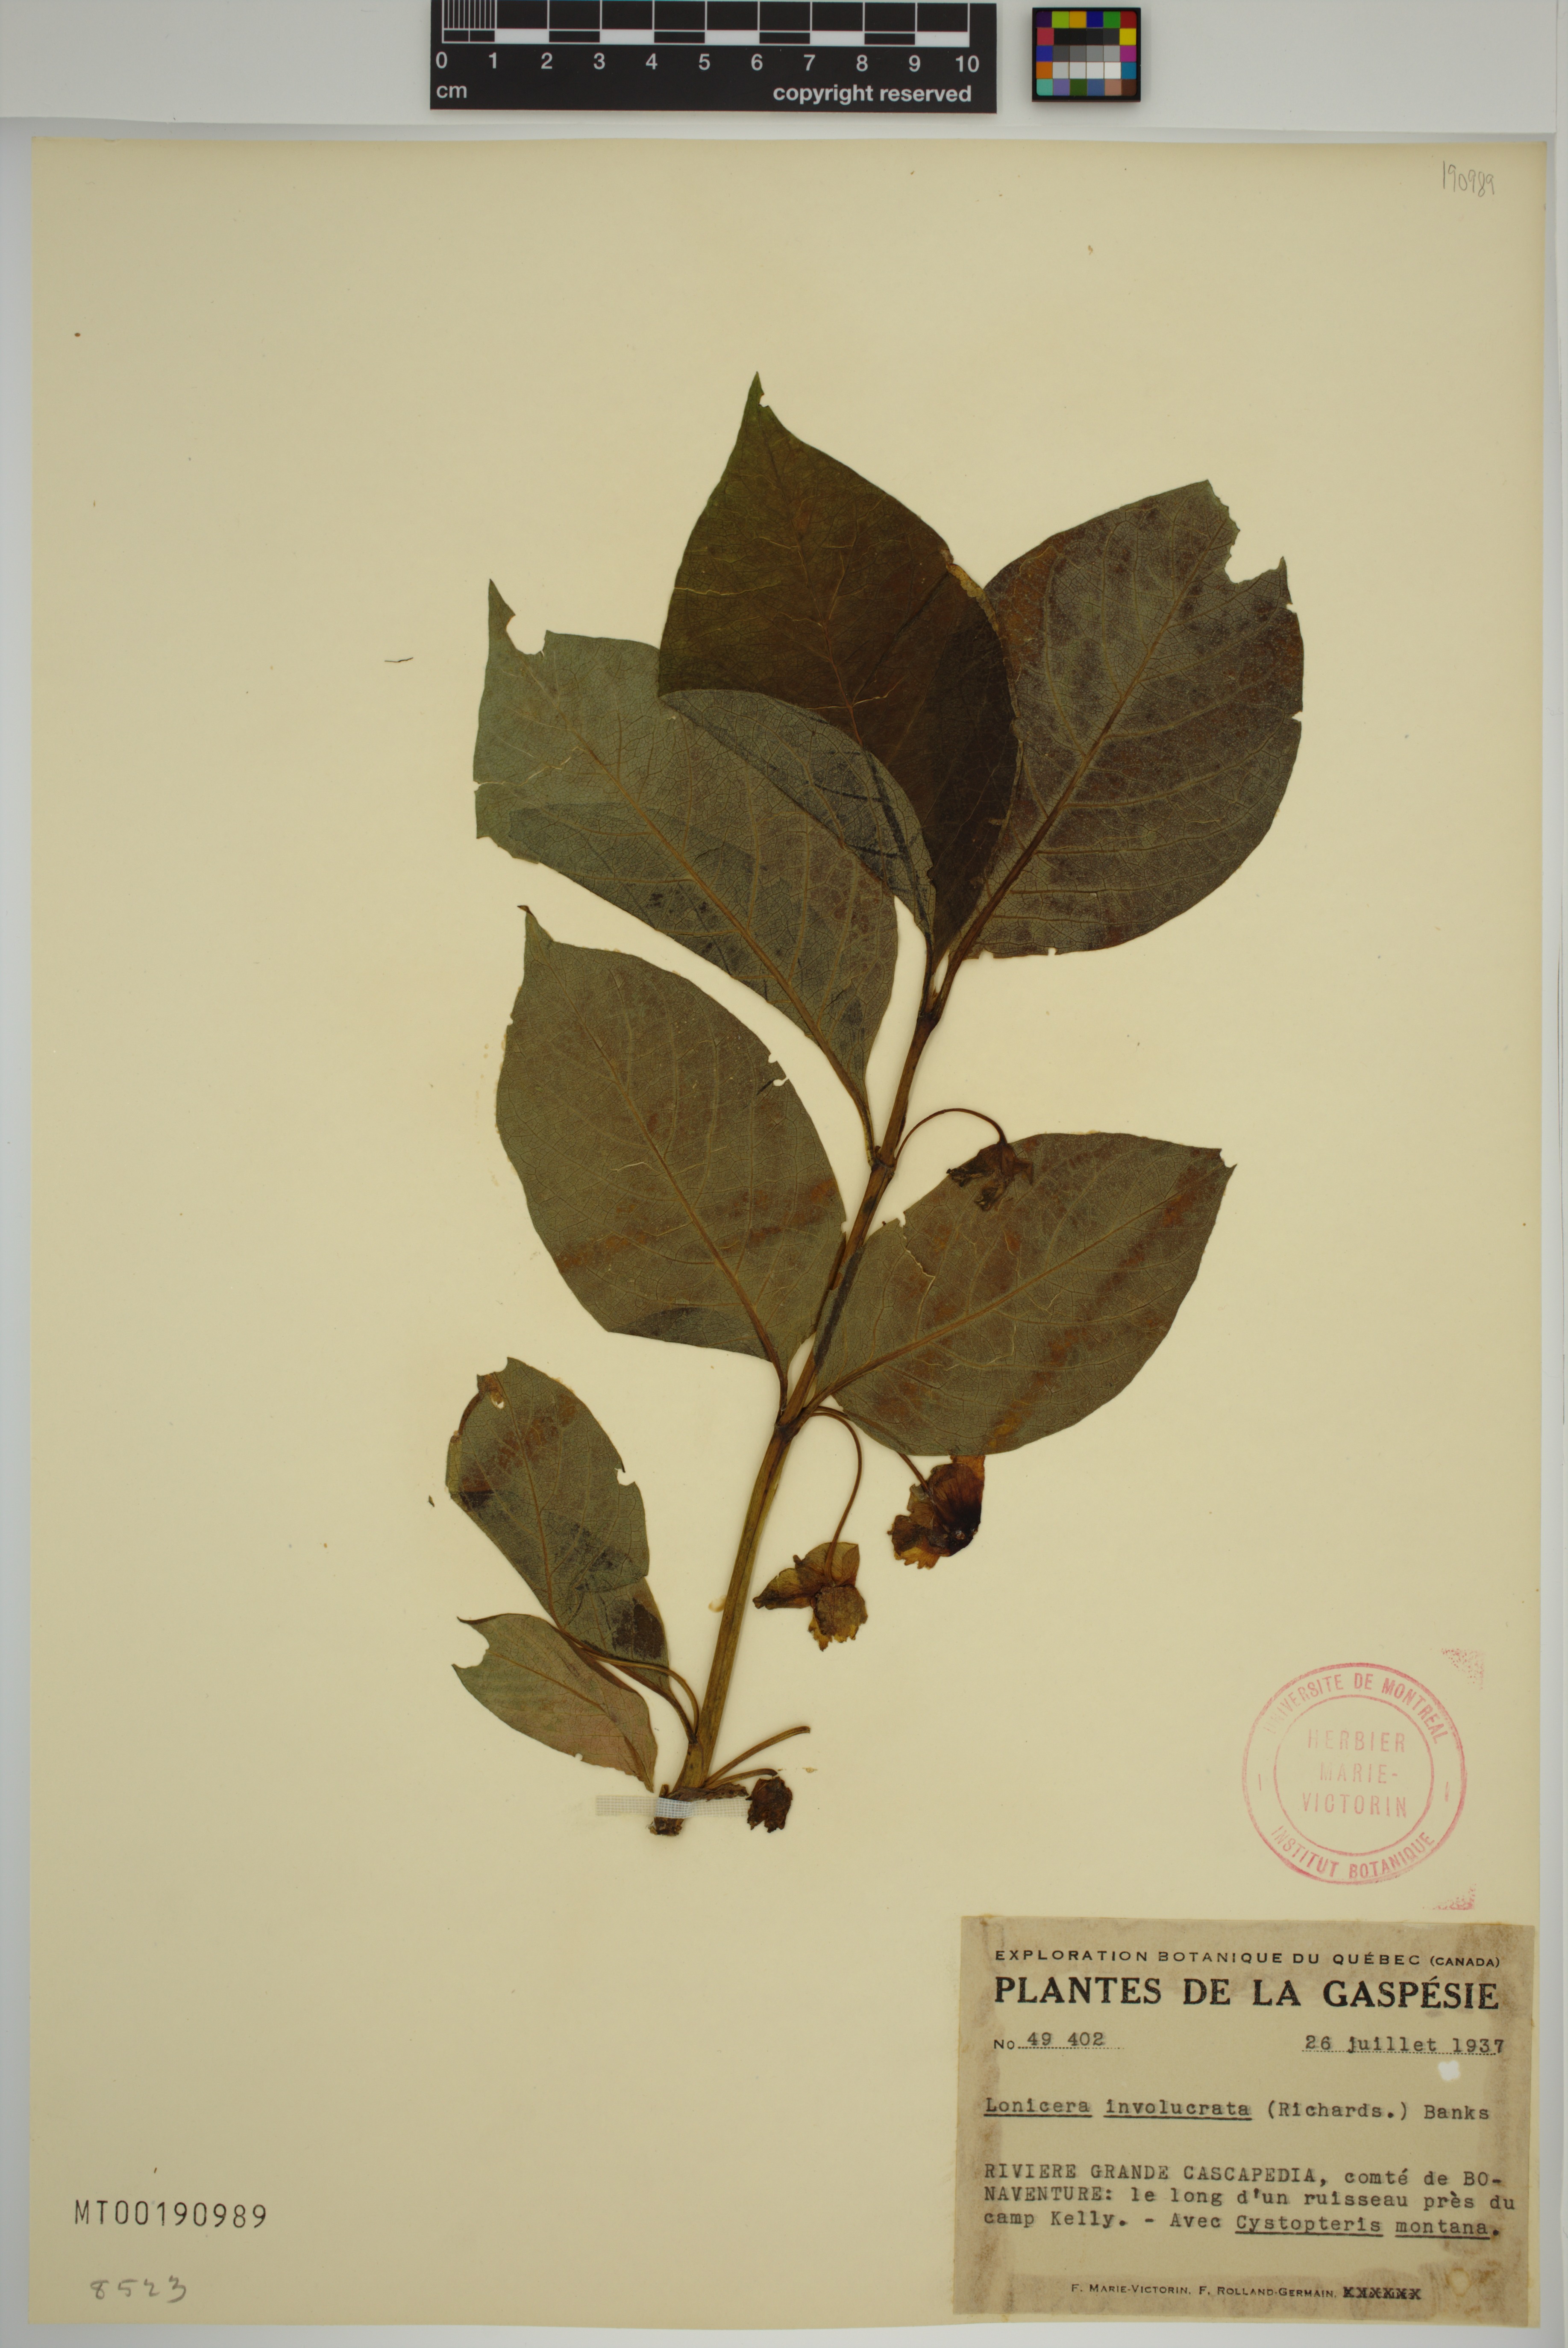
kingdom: Plantae
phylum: Tracheophyta
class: Magnoliopsida
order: Dipsacales
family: Caprifoliaceae
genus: Lonicera
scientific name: Lonicera involucrata
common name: Californian honeysuckle
